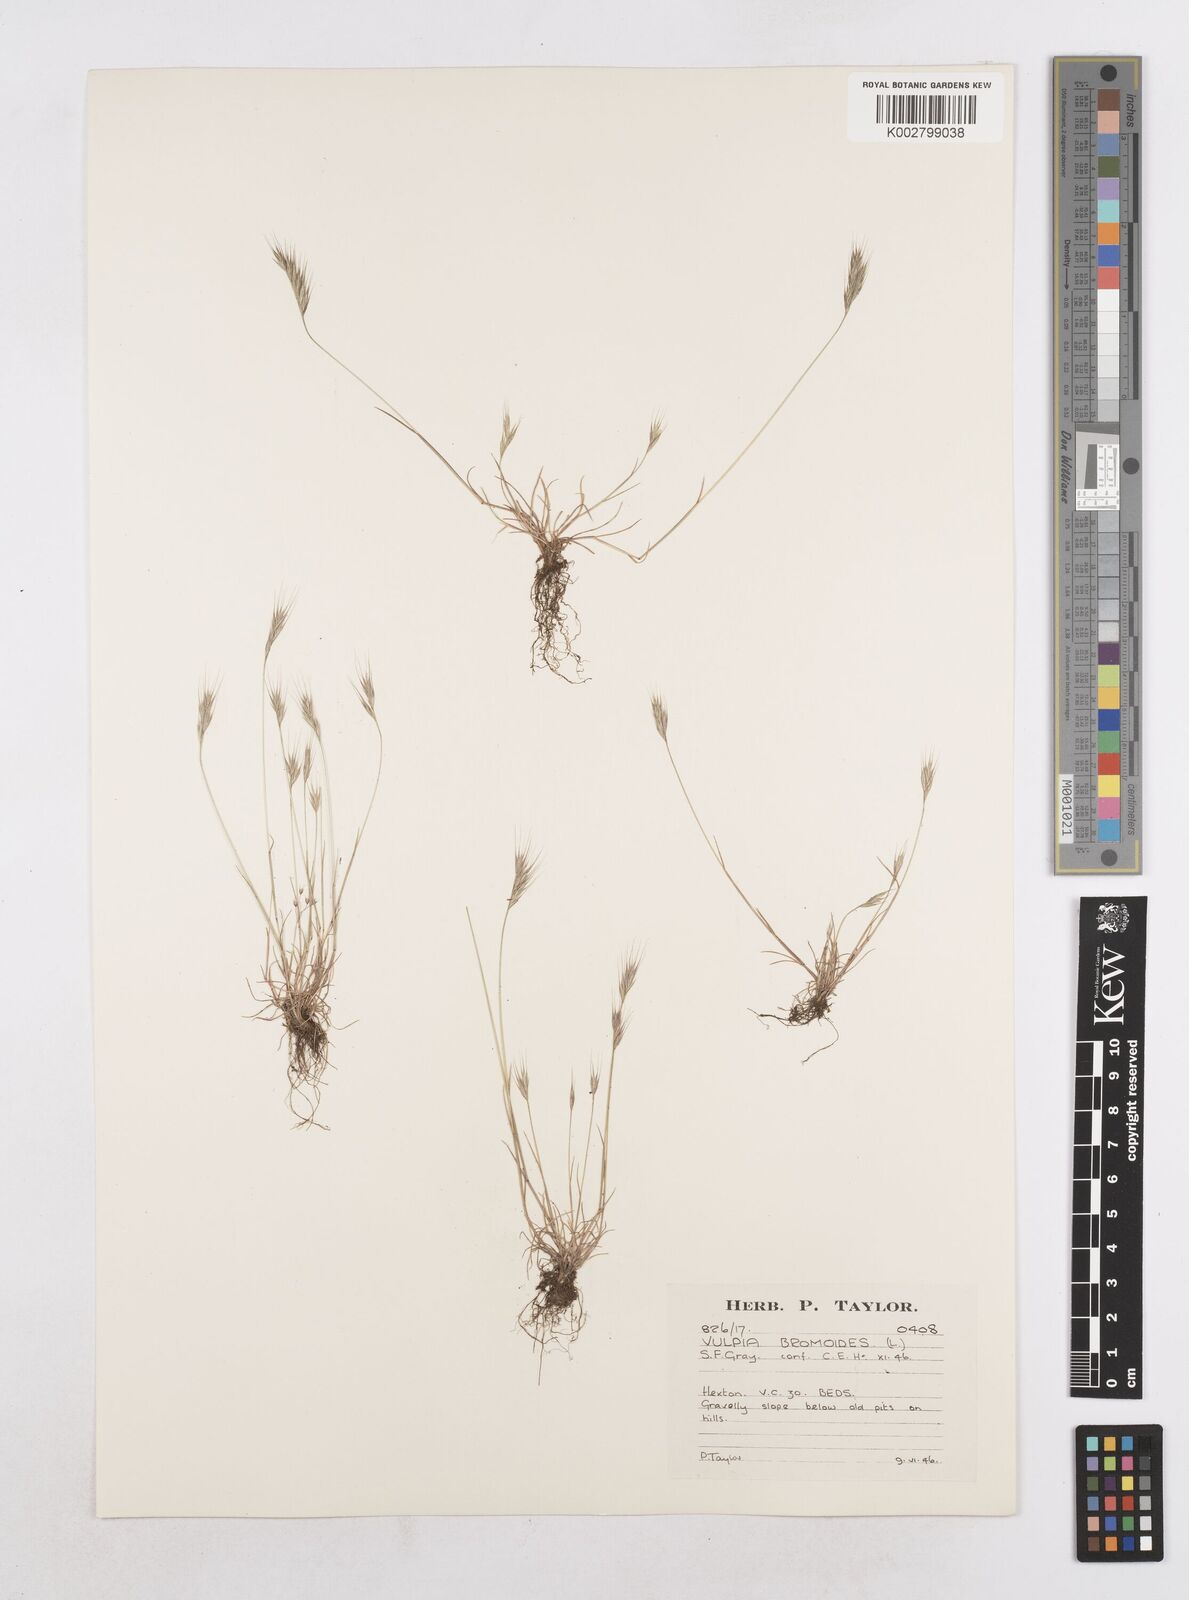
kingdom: Plantae
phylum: Tracheophyta
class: Liliopsida
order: Poales
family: Poaceae
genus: Festuca
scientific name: Festuca bromoides
